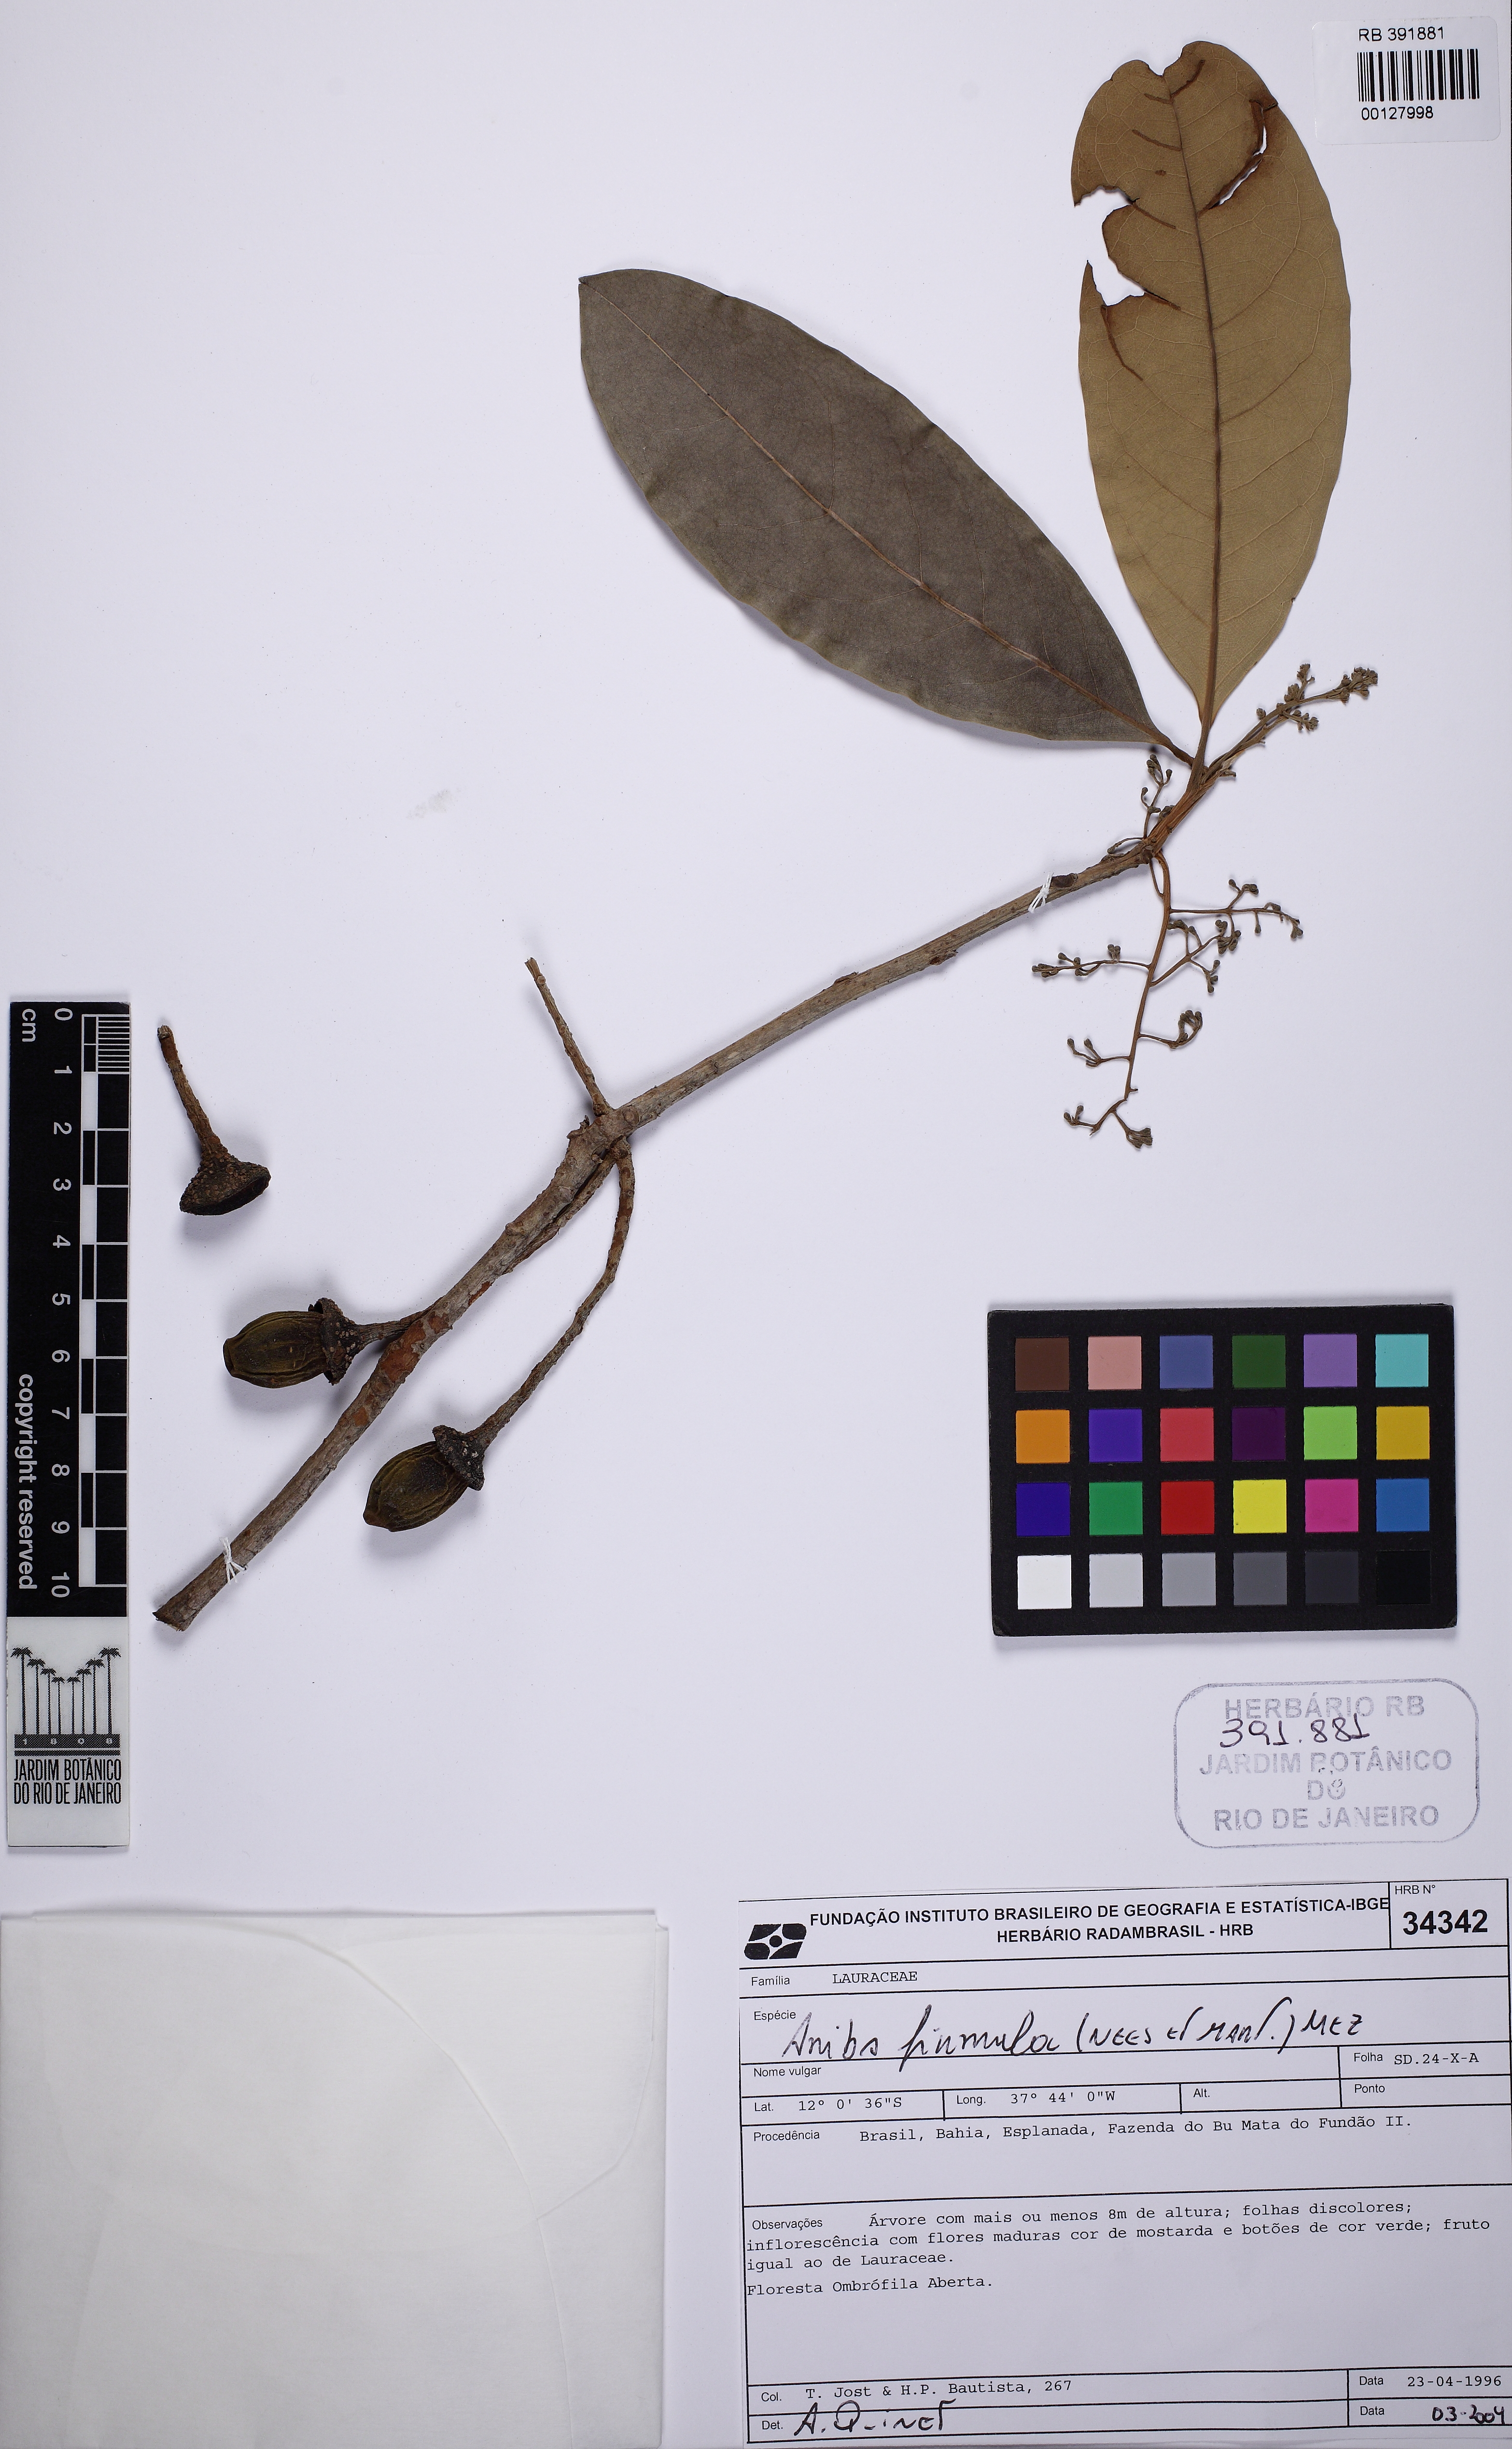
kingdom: Plantae
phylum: Tracheophyta
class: Magnoliopsida
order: Laurales
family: Lauraceae
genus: Aniba
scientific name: Aniba firmula
